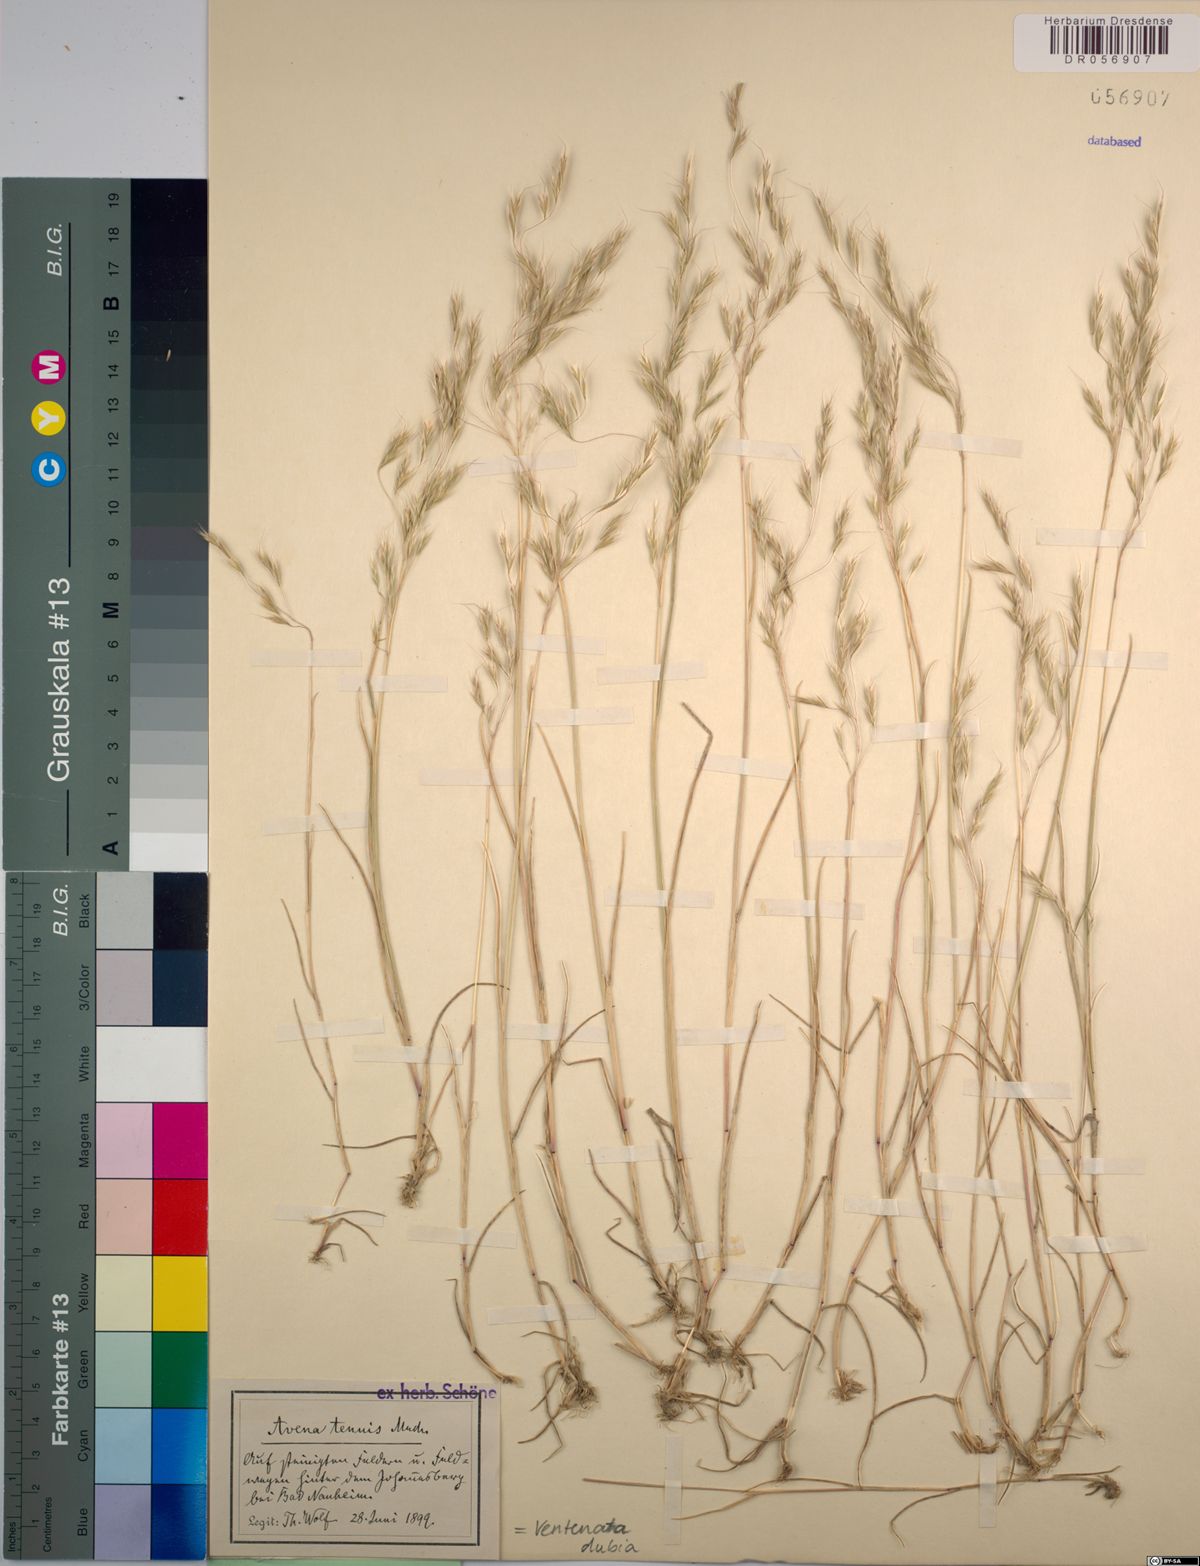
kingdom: Plantae
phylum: Tracheophyta
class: Liliopsida
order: Poales
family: Poaceae
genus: Ventenata
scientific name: Ventenata dubia
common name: North africa grass
